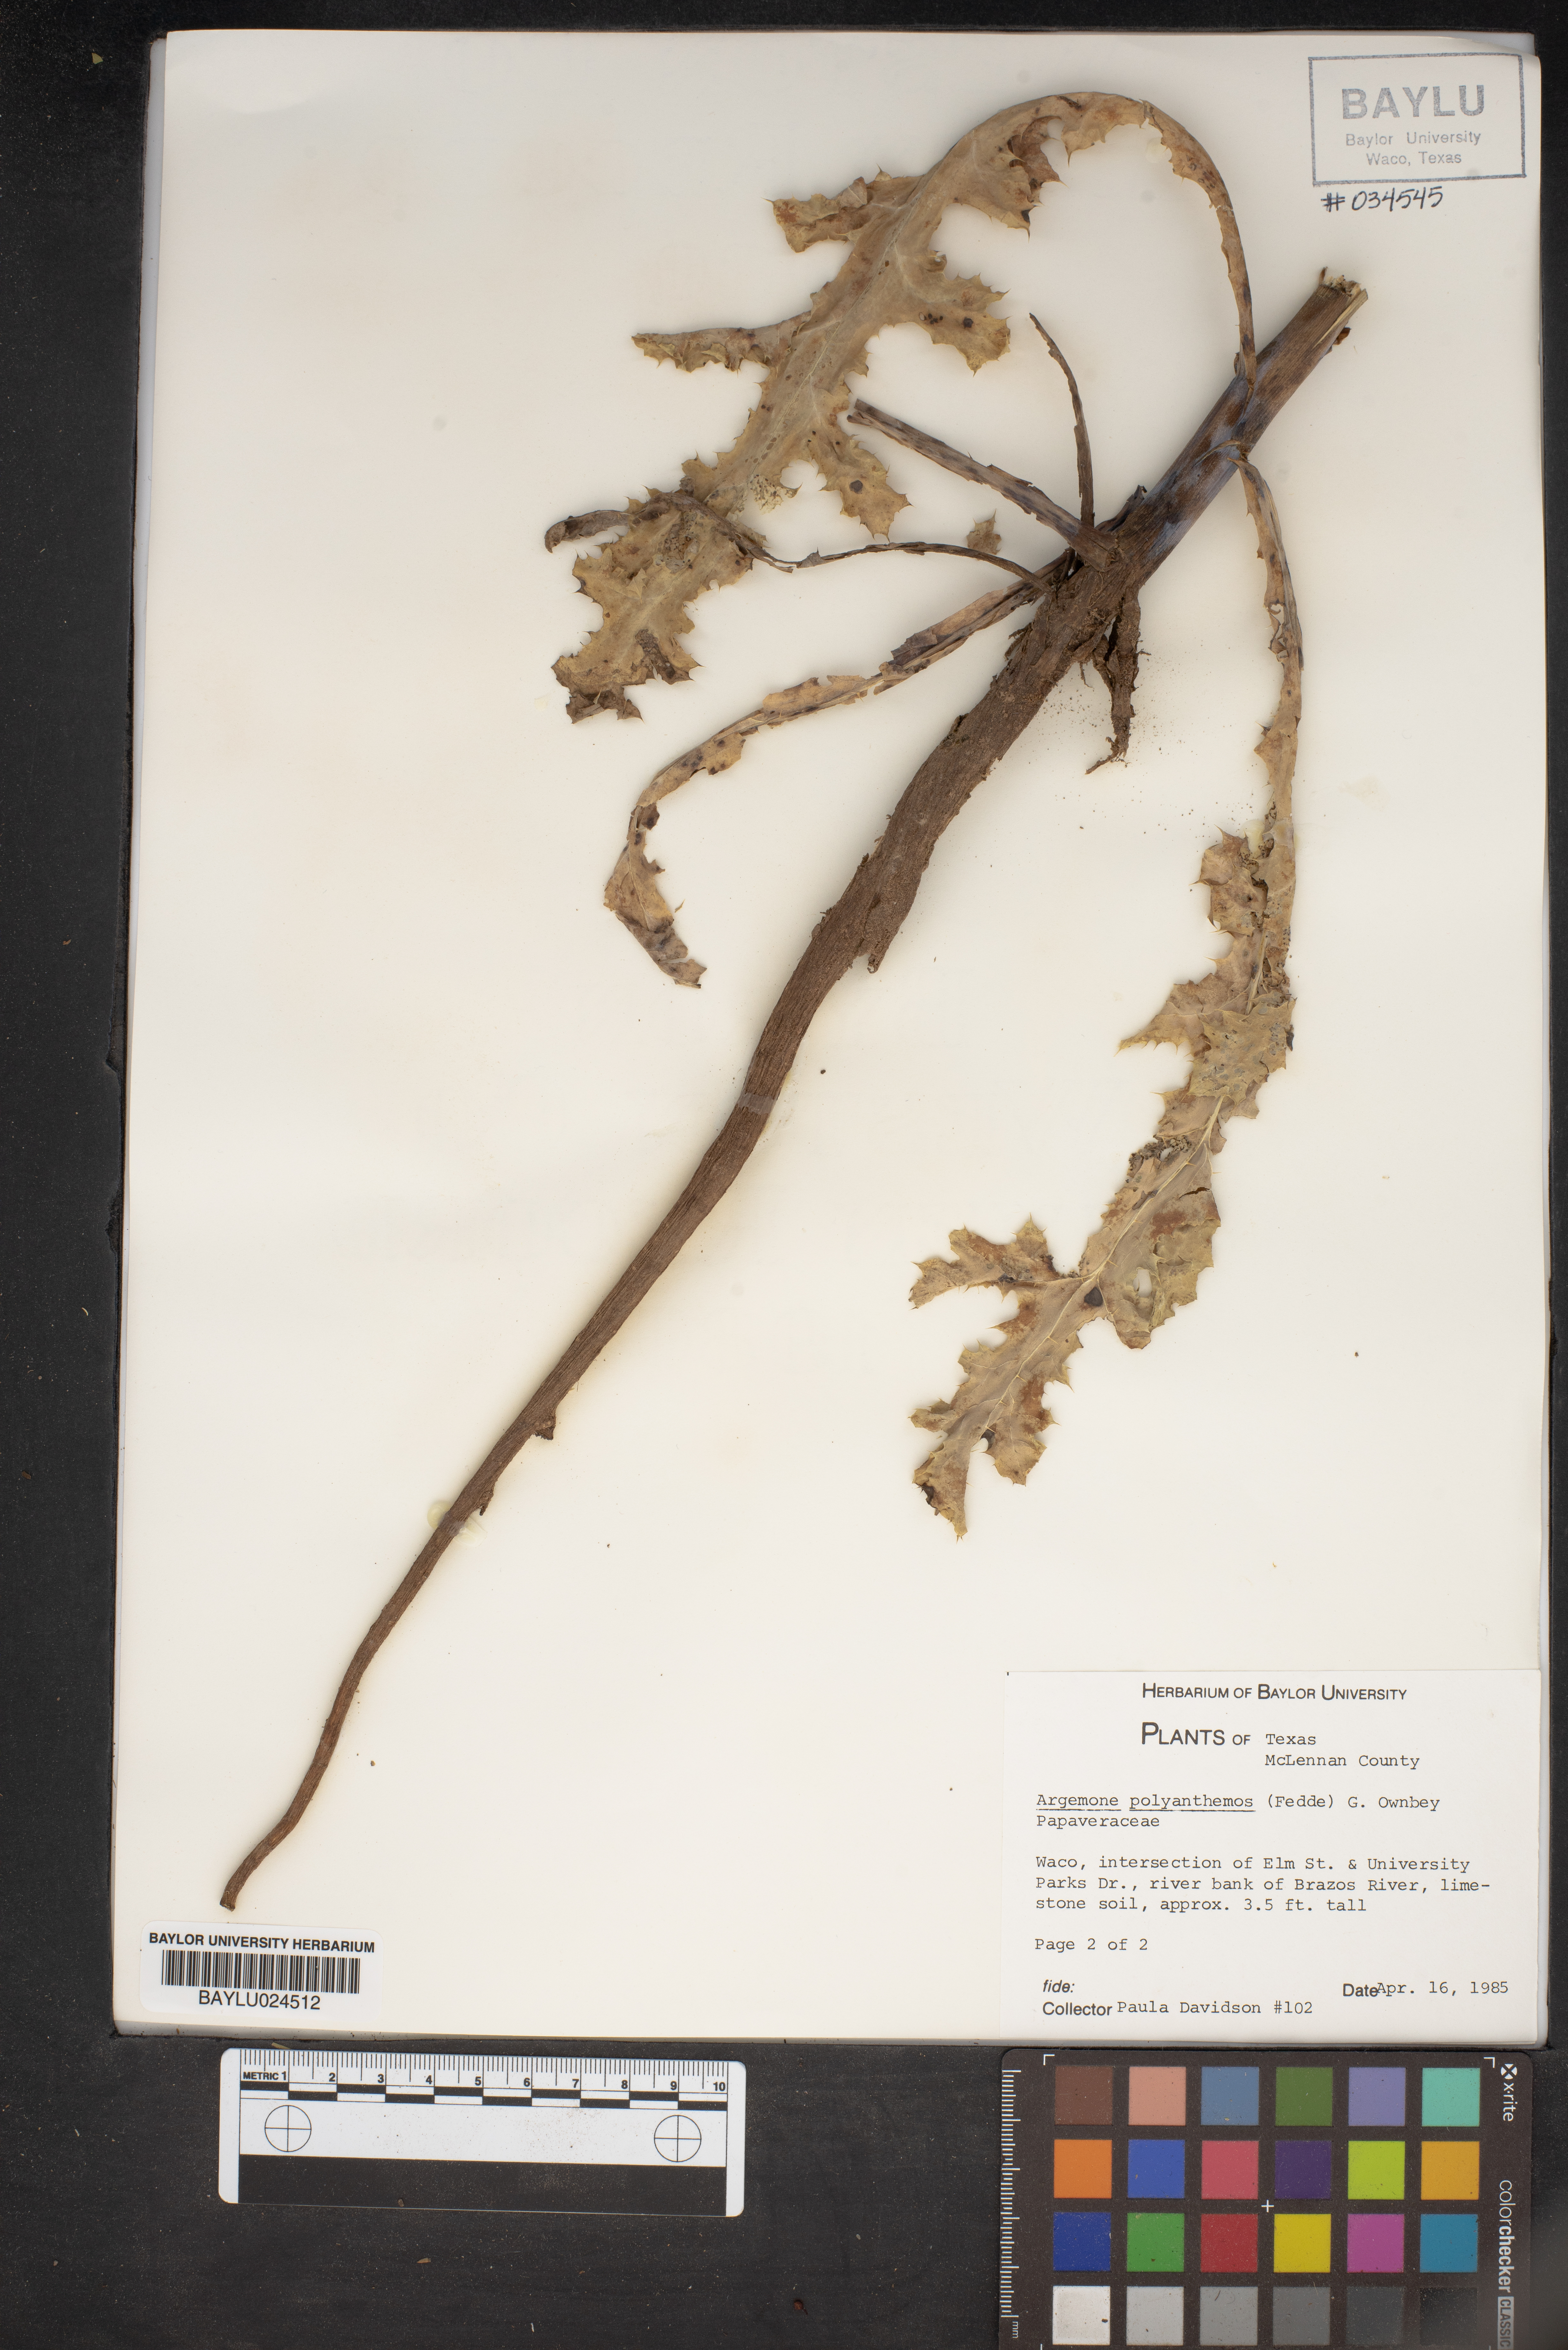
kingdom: Plantae
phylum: Tracheophyta
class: Magnoliopsida
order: Ranunculales
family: Papaveraceae
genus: Argemone
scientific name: Argemone polyanthemos
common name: Plains prickly-poppy
